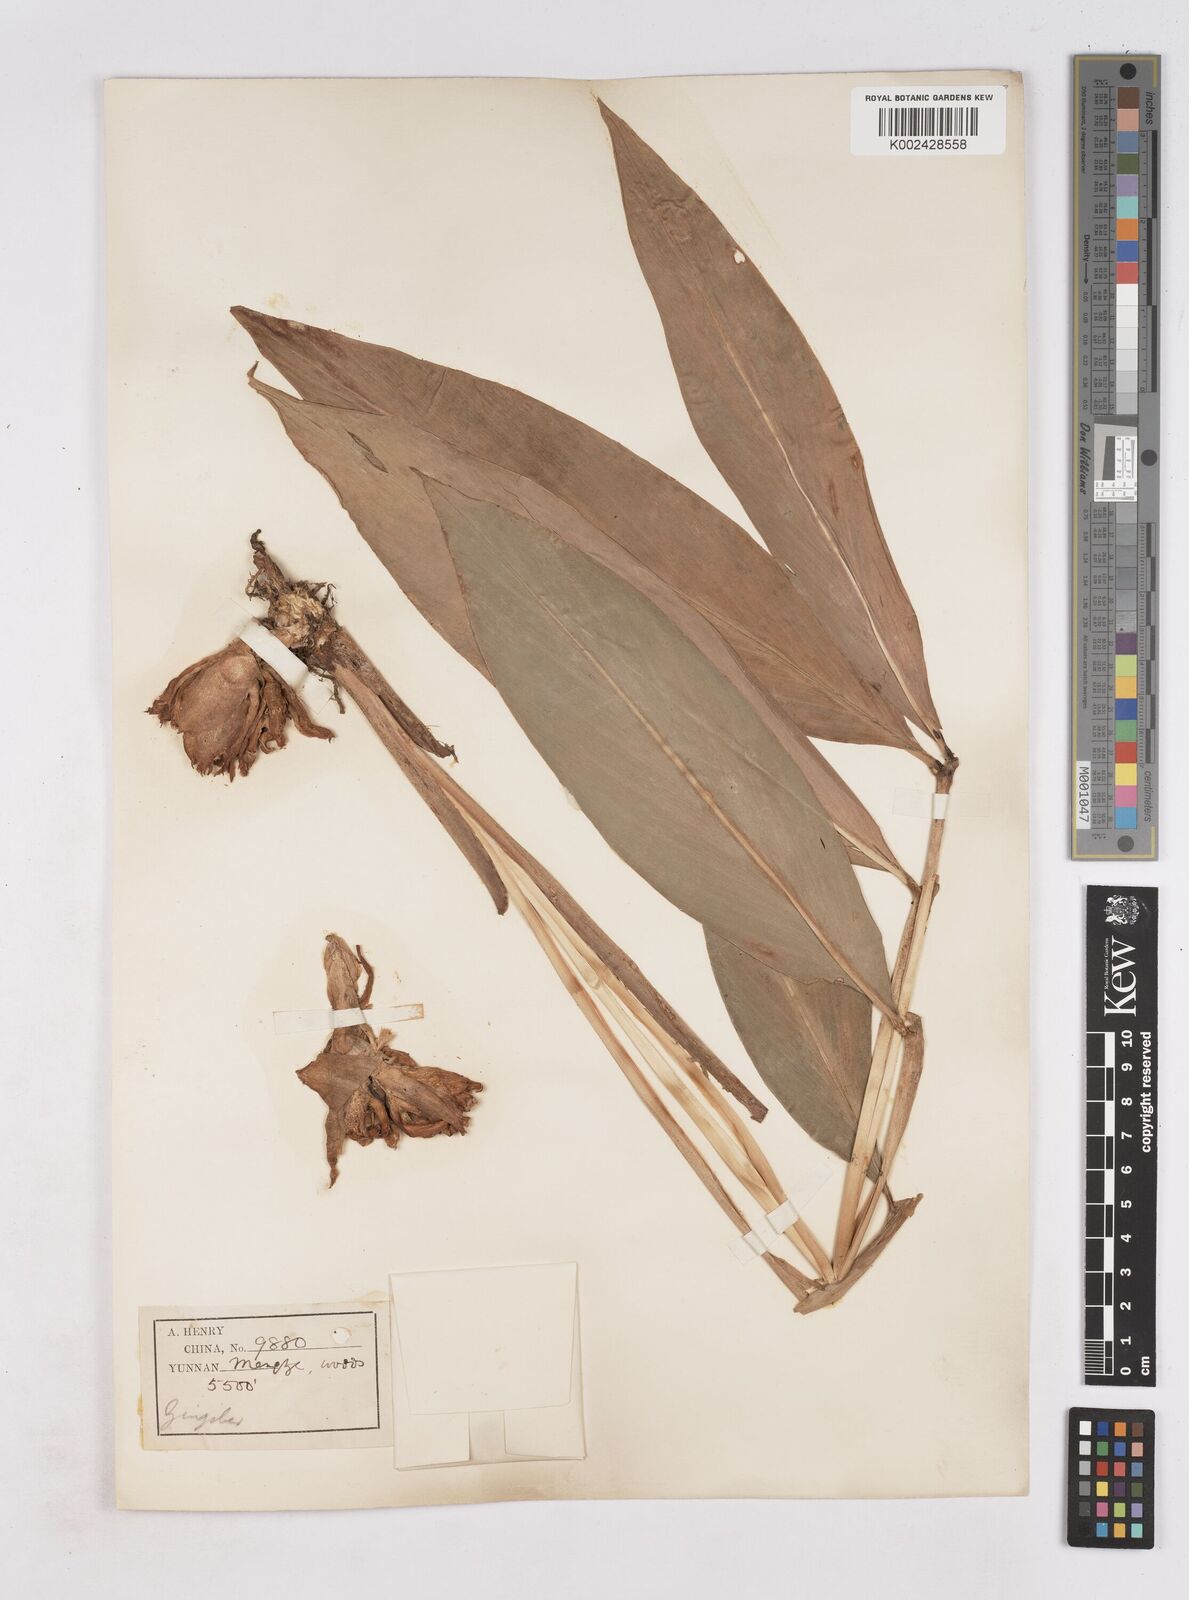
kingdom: Plantae
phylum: Tracheophyta
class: Liliopsida
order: Zingiberales
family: Zingiberaceae
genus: Zingiber
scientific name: Zingiber
